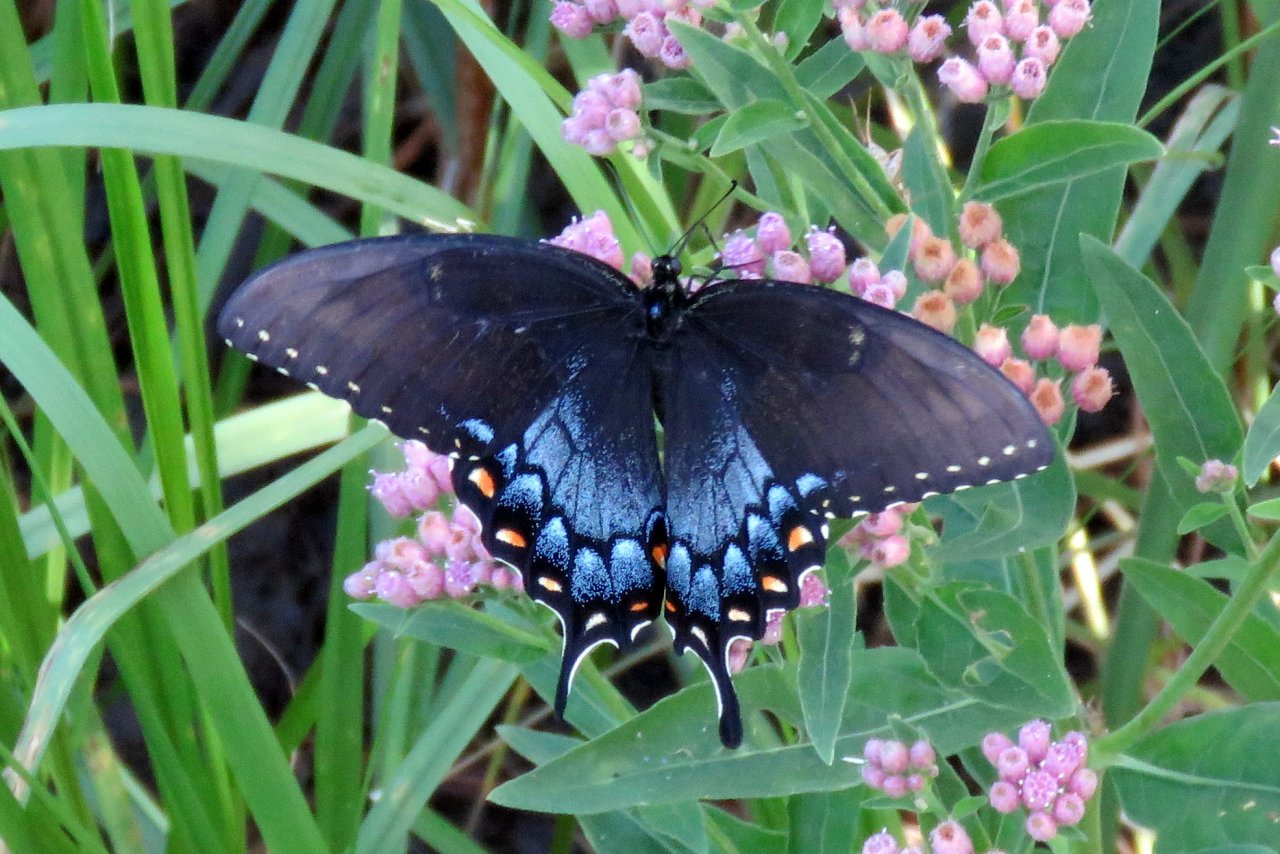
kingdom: Animalia
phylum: Arthropoda
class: Insecta
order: Lepidoptera
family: Papilionidae
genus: Papilio
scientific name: Papilio
